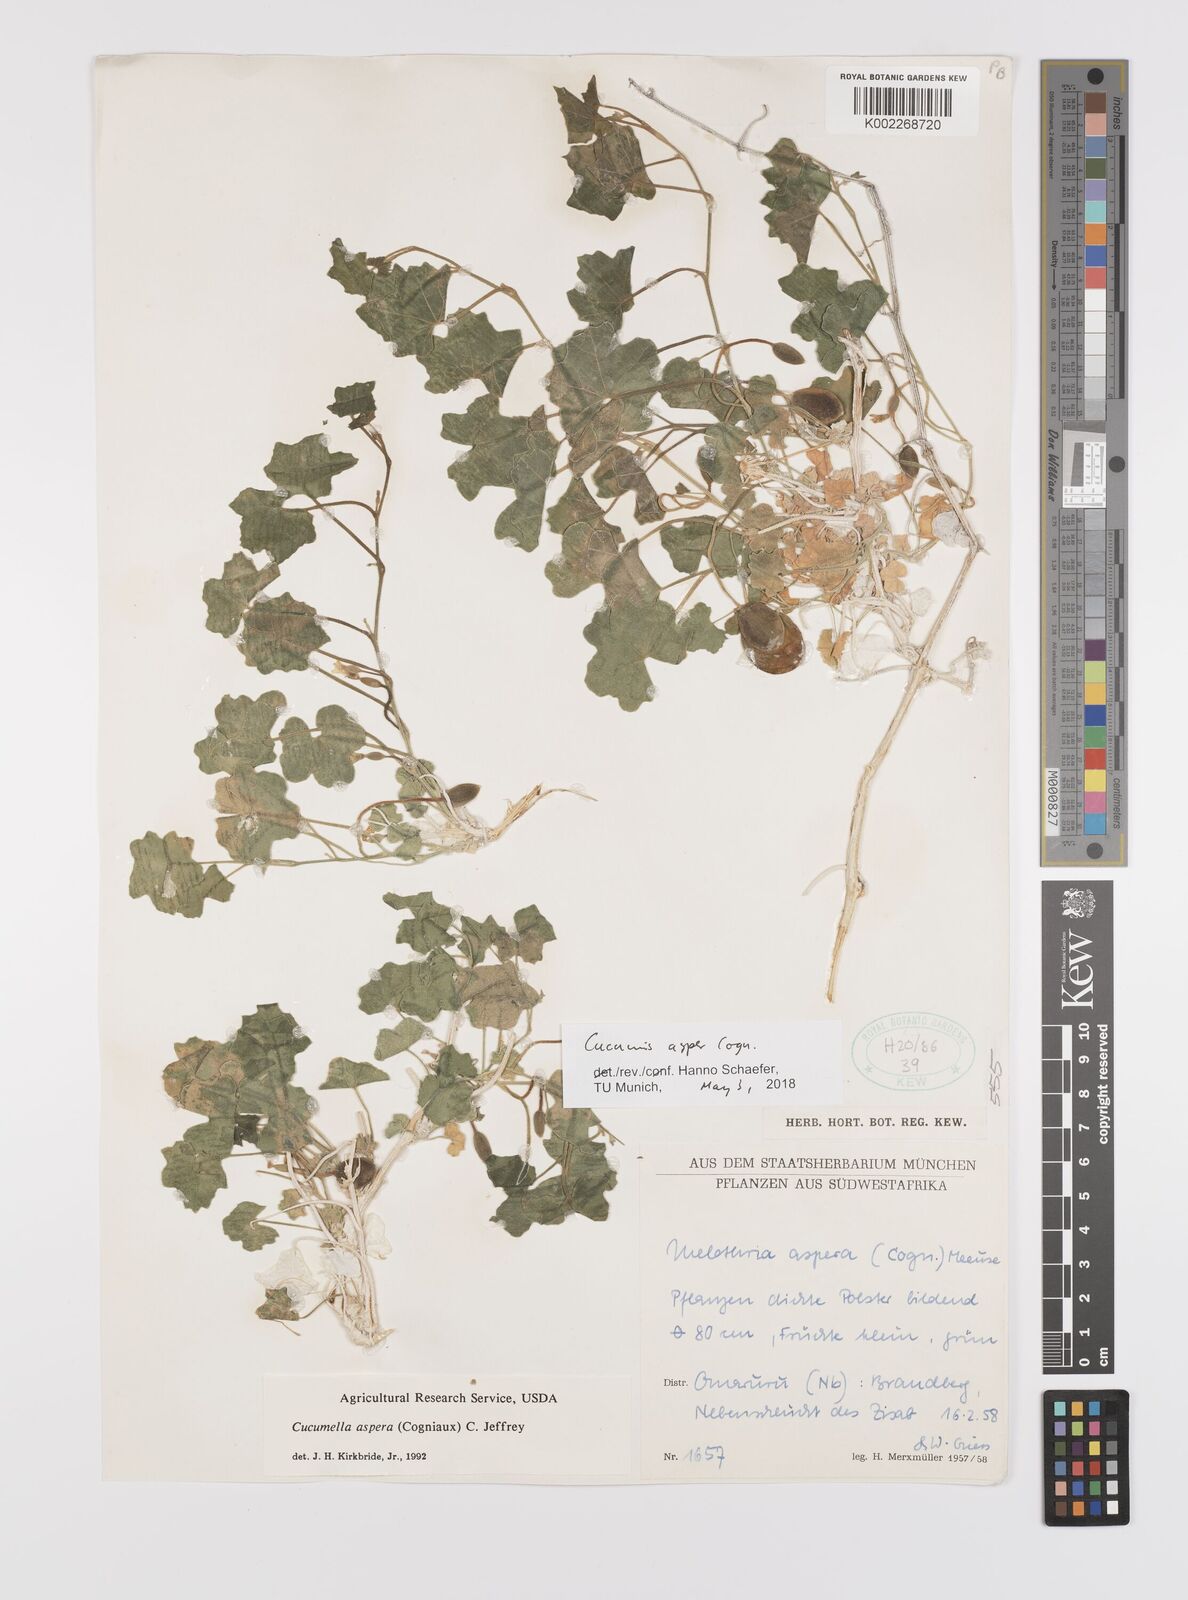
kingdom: Plantae
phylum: Tracheophyta
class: Magnoliopsida
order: Cucurbitales
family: Cucurbitaceae
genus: Cucumis
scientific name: Cucumis asper
